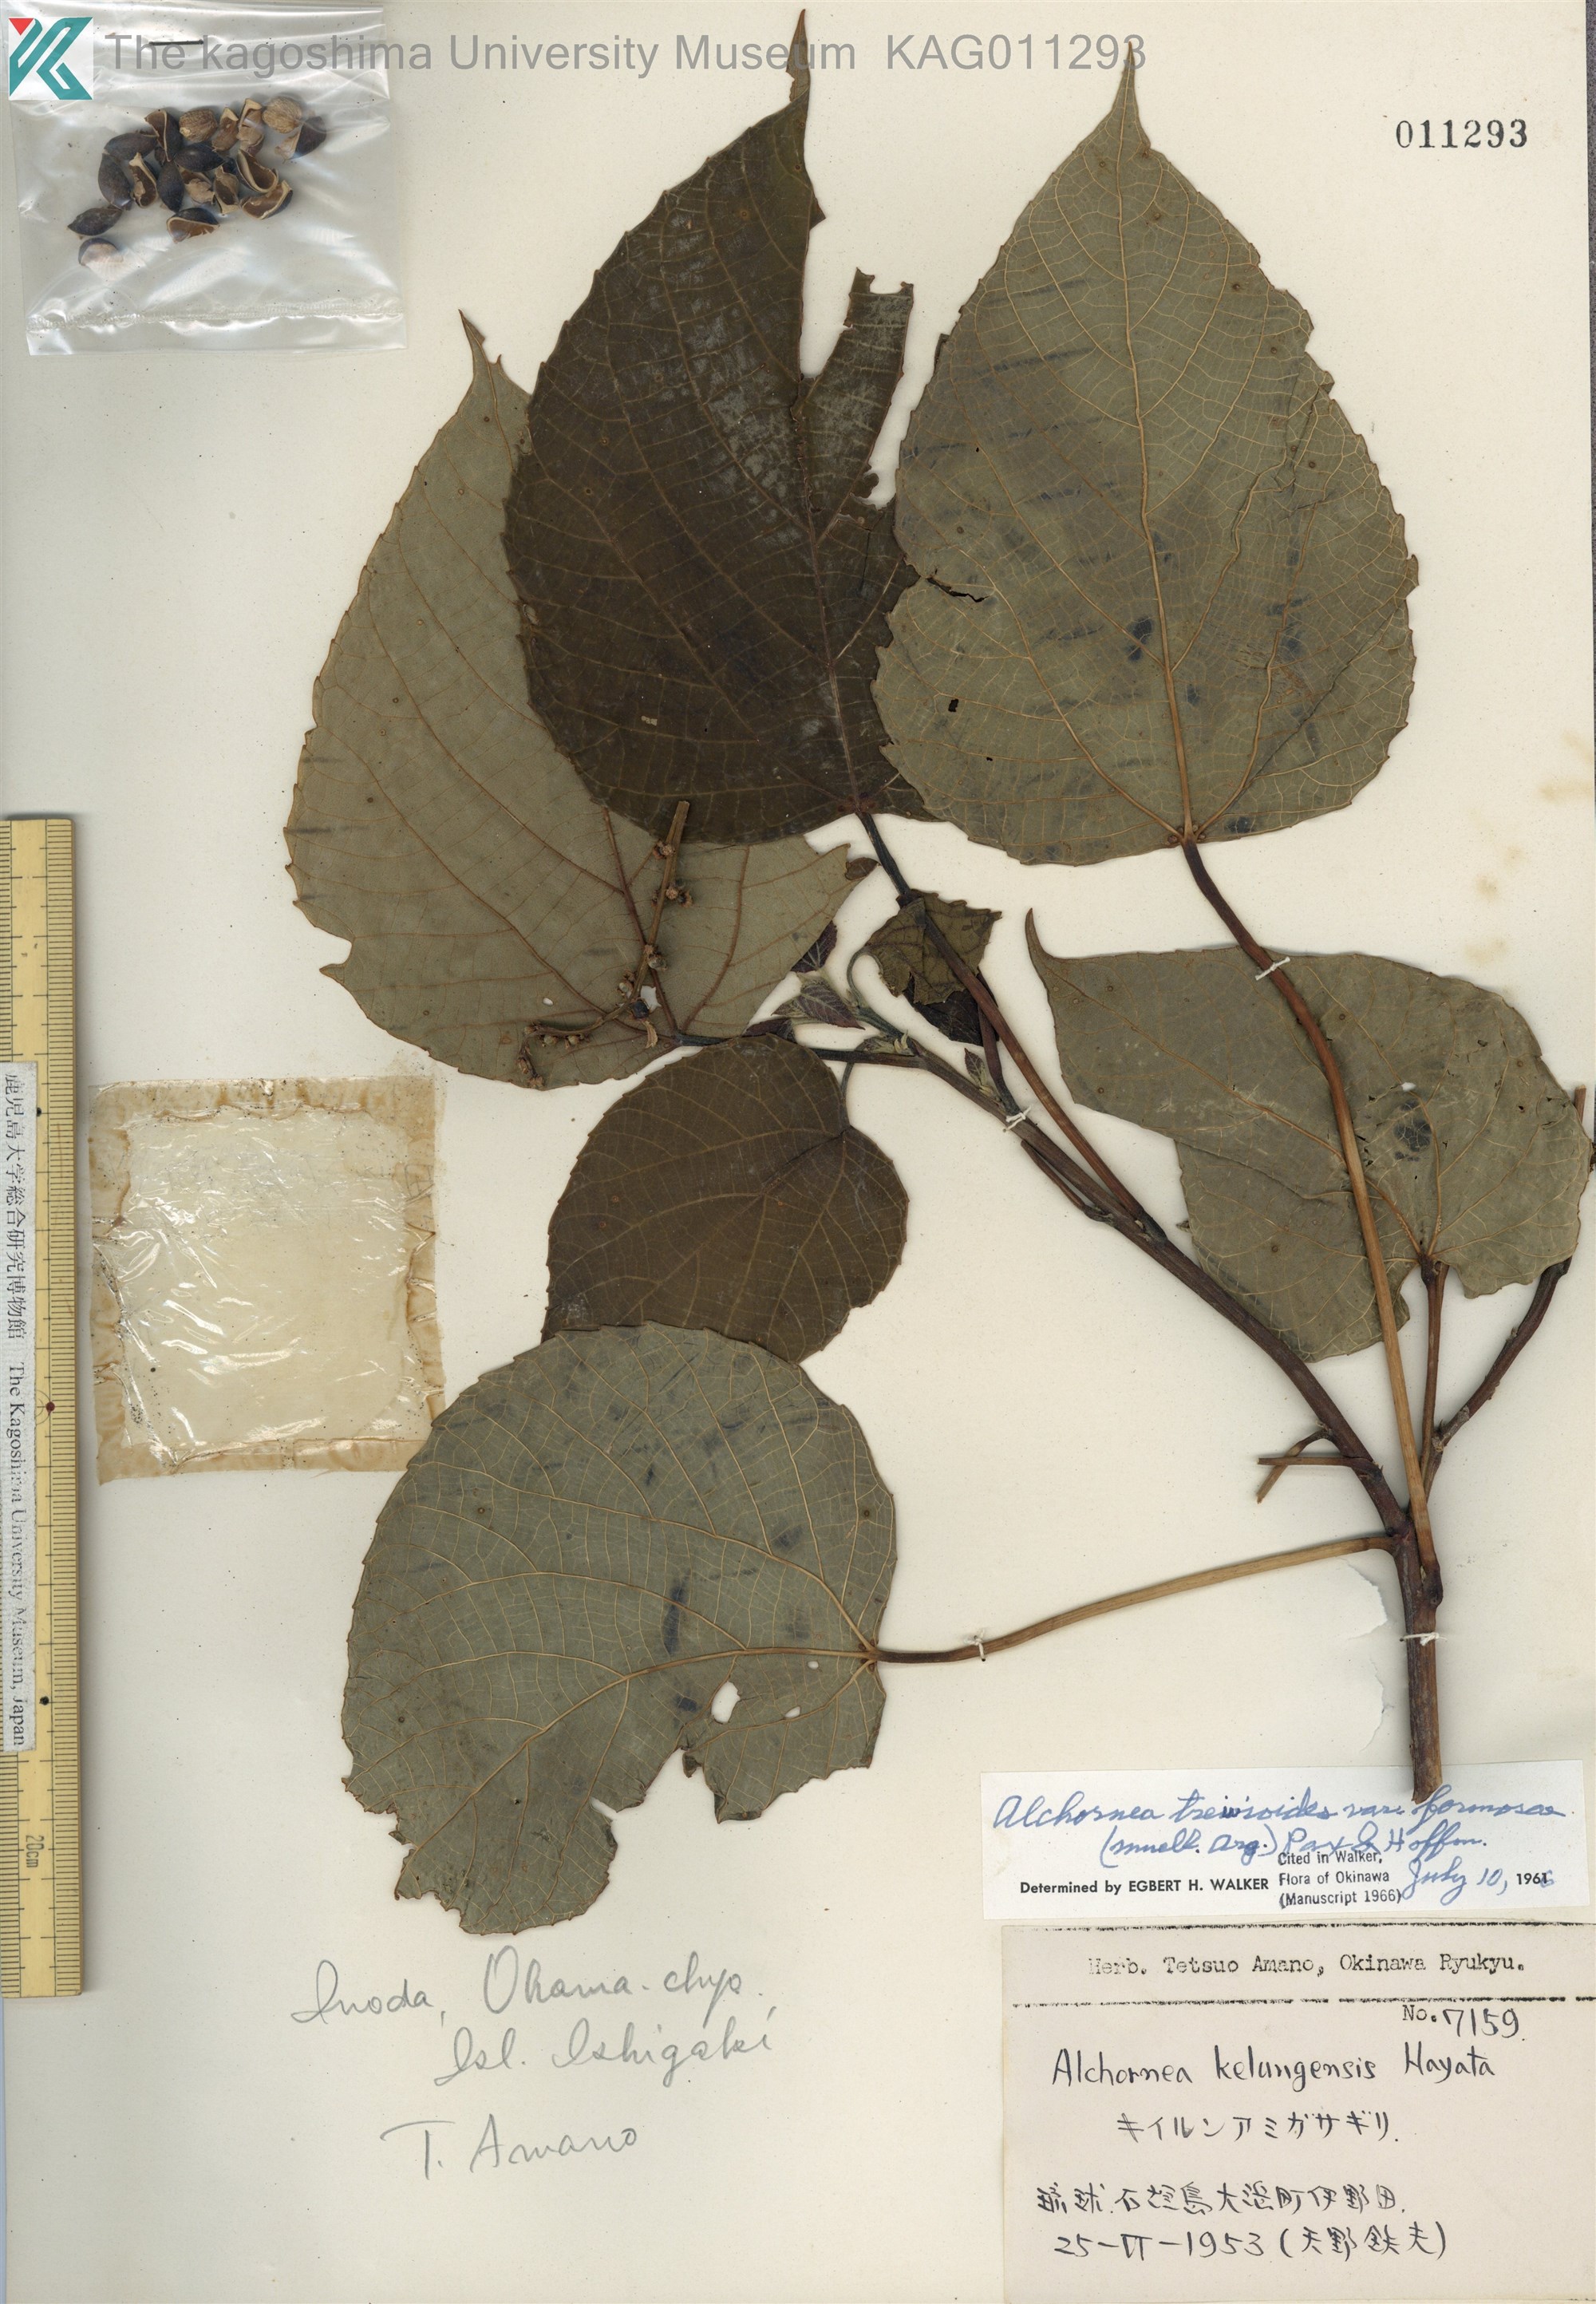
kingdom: Plantae
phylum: Tracheophyta
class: Magnoliopsida
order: Malpighiales
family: Euphorbiaceae
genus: Alchornea
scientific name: Alchornea liukiuensis
